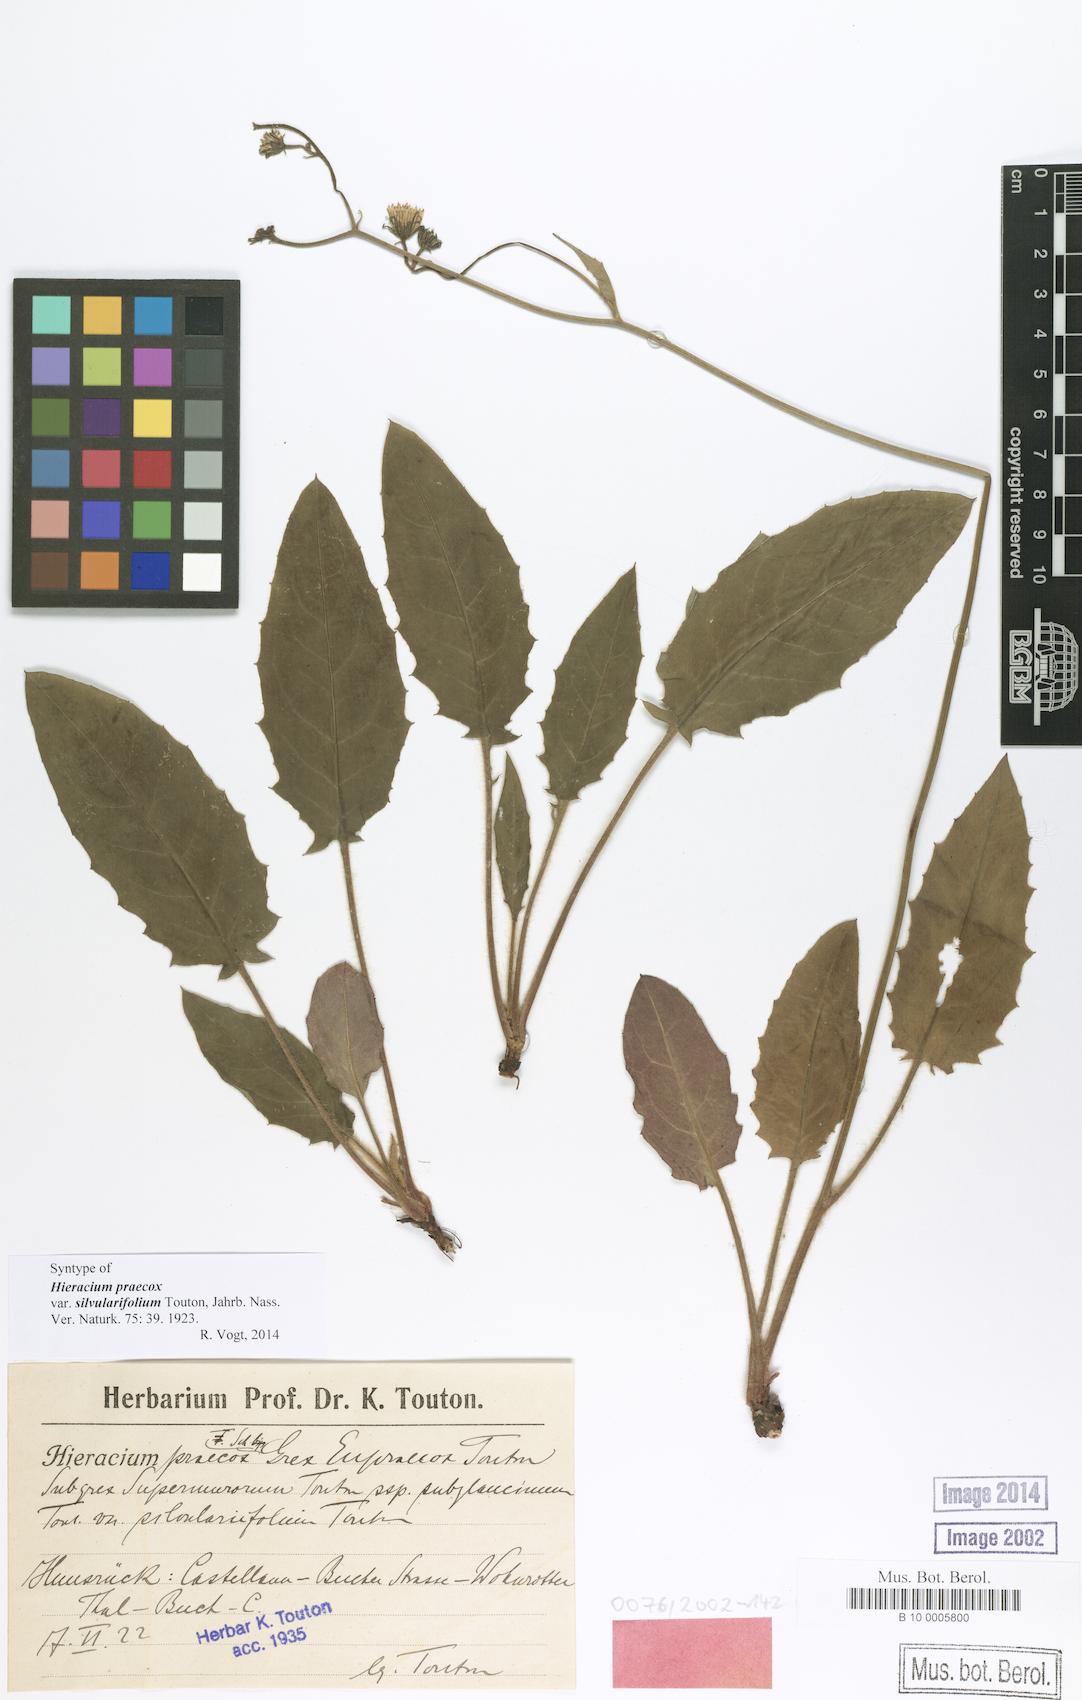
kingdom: Plantae
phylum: Tracheophyta
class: Magnoliopsida
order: Asterales
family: Asteraceae
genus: Hieracium
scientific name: Hieracium praecox
